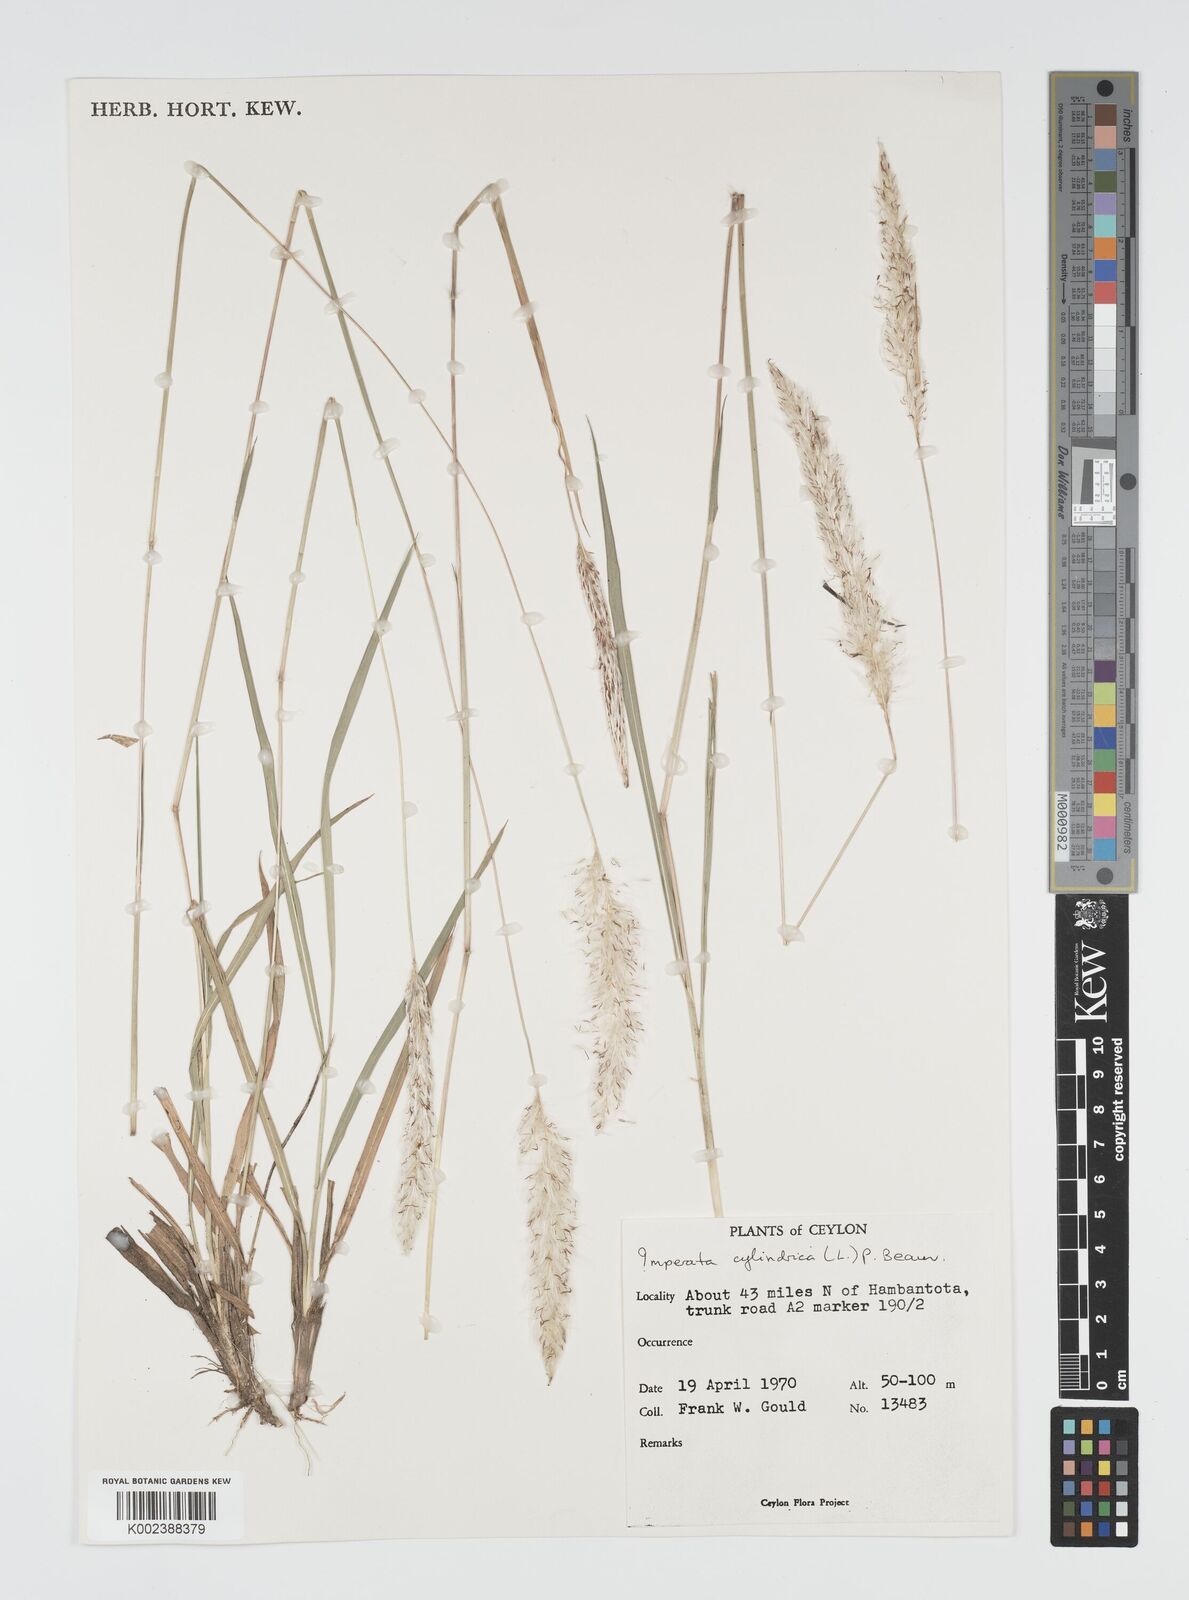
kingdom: Plantae
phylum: Tracheophyta
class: Liliopsida
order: Poales
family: Poaceae
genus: Imperata
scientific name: Imperata cylindrica
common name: Cogongrass
